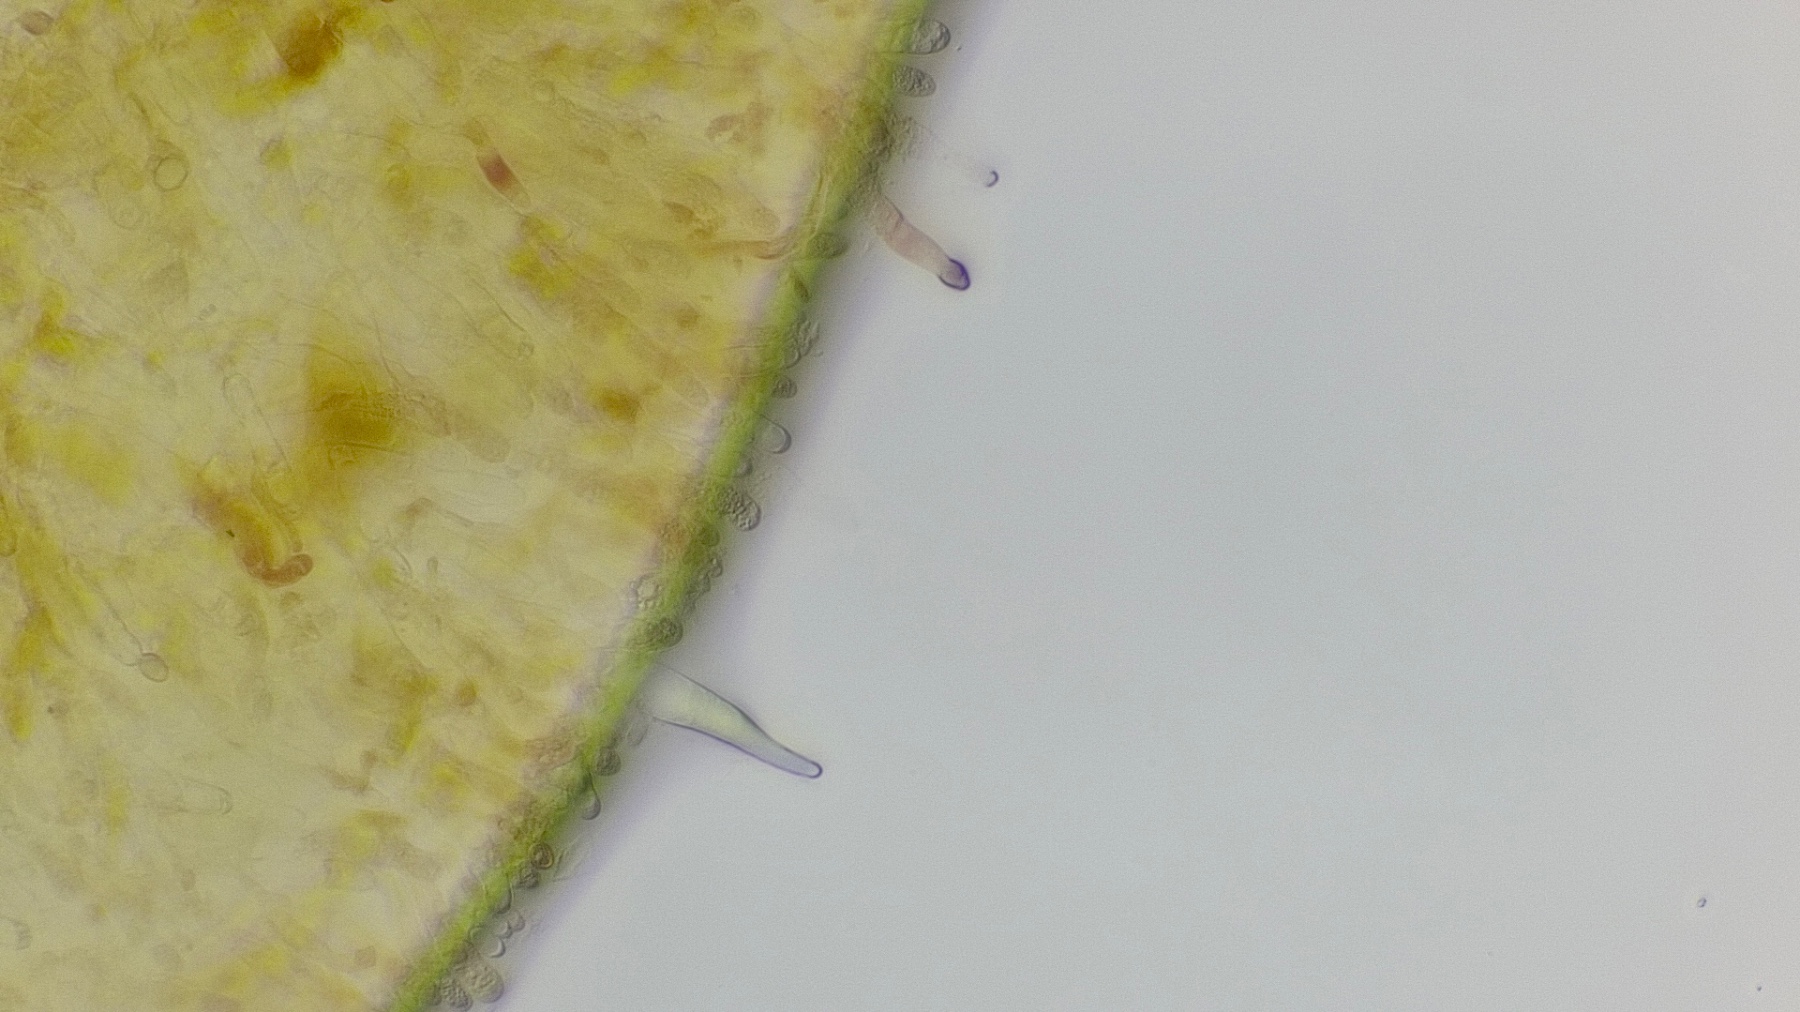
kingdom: Fungi
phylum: Basidiomycota
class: Agaricomycetes
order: Boletales
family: Paxillaceae
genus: Paxillus
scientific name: Paxillus obscurisporus
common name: mahognisporet netbladhat
